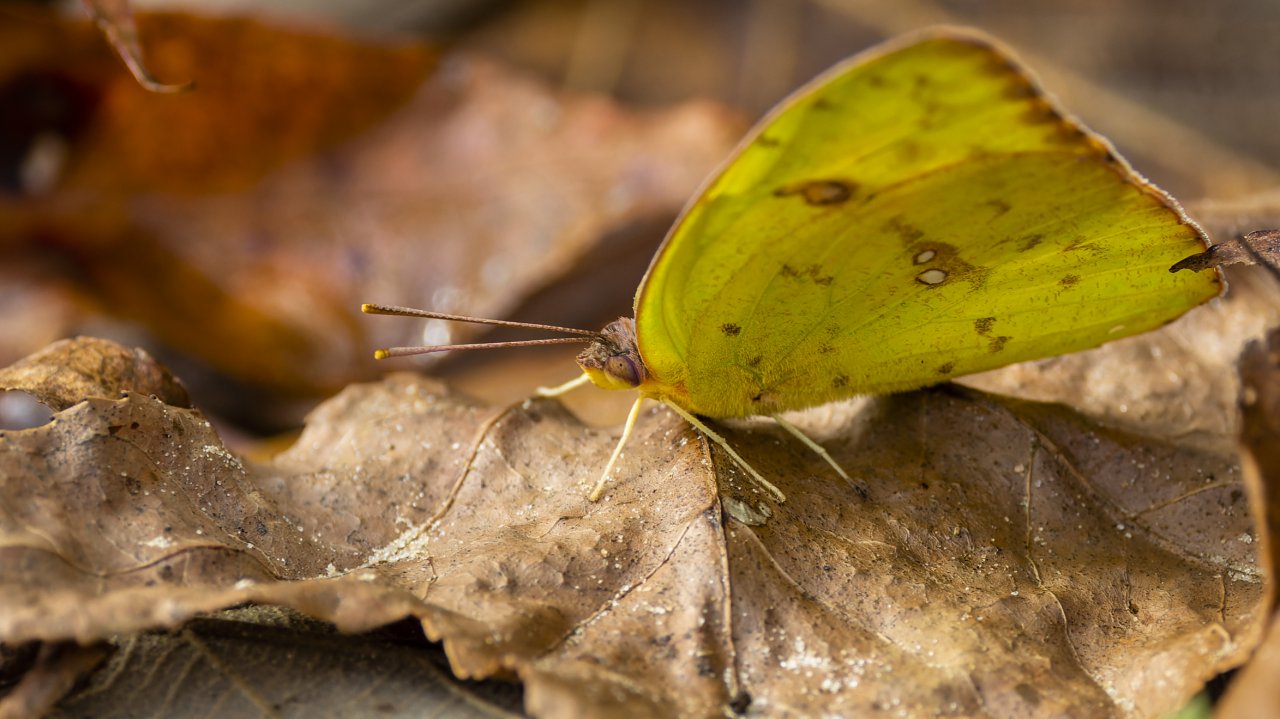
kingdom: Animalia
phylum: Arthropoda
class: Insecta
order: Lepidoptera
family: Pieridae
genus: Zerene
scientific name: Zerene cesonia
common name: Southern Dogface
